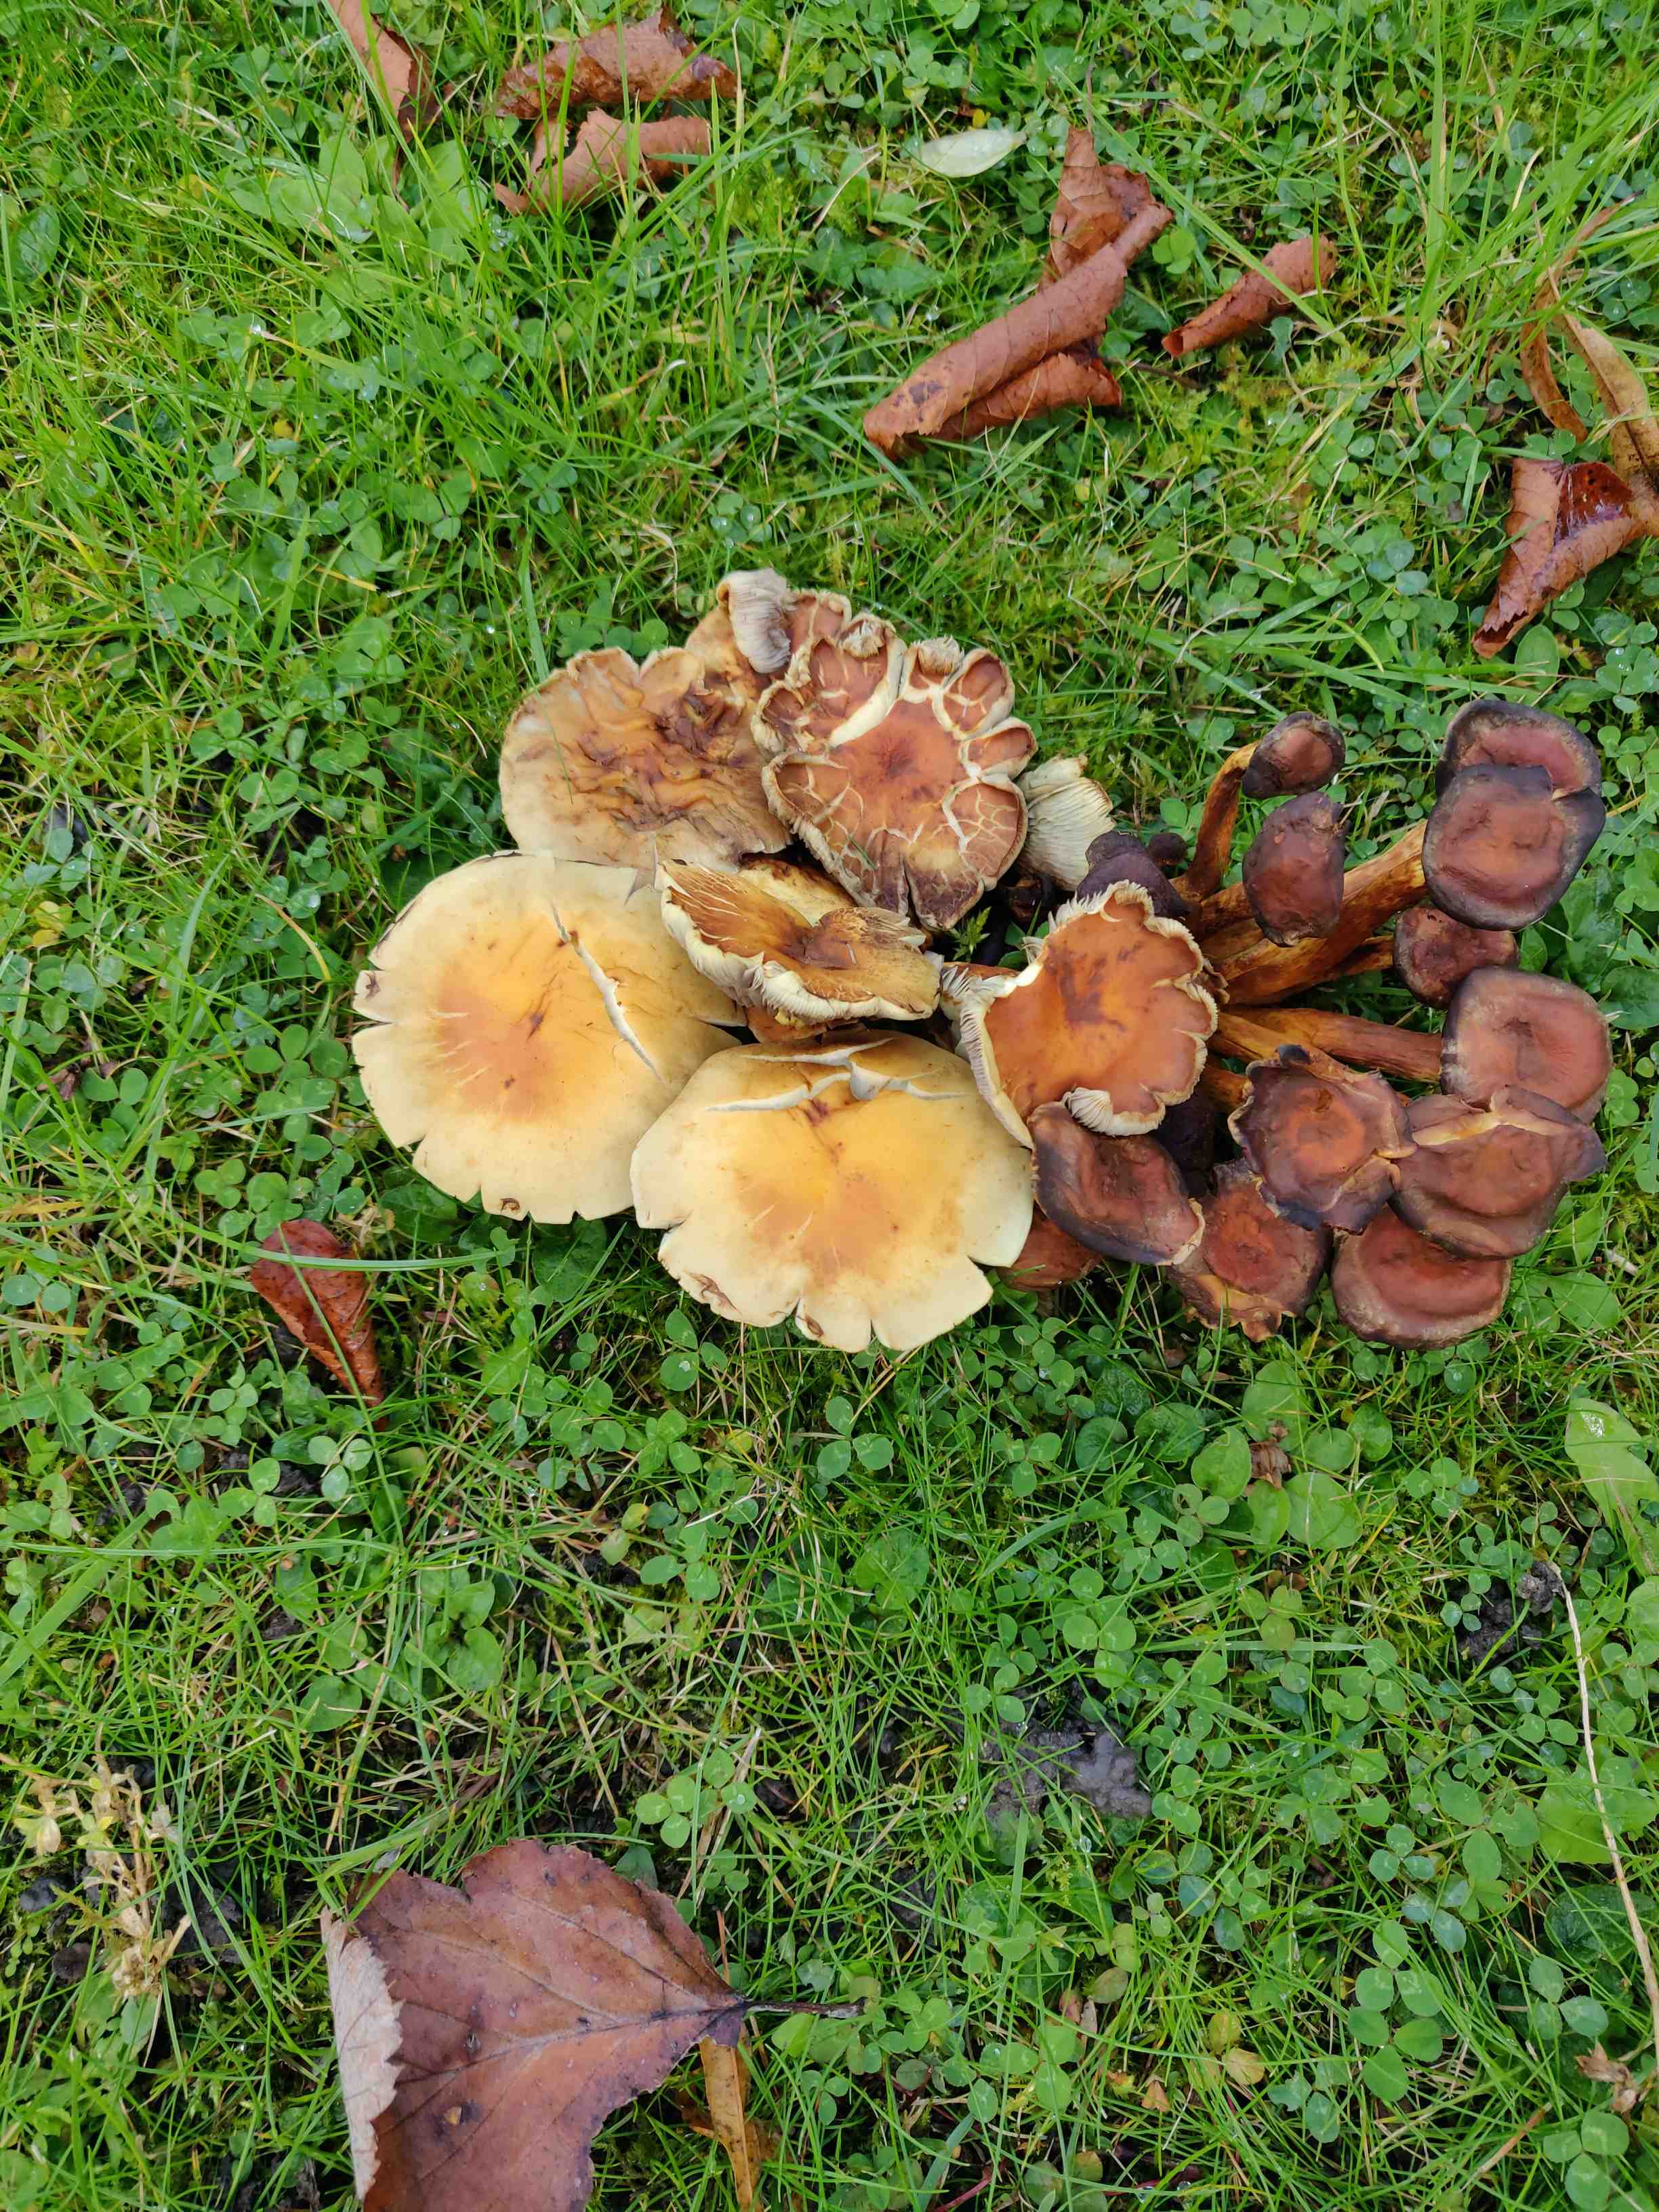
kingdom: Fungi
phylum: Basidiomycota
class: Agaricomycetes
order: Agaricales
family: Strophariaceae
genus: Hypholoma
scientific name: Hypholoma fasciculare
